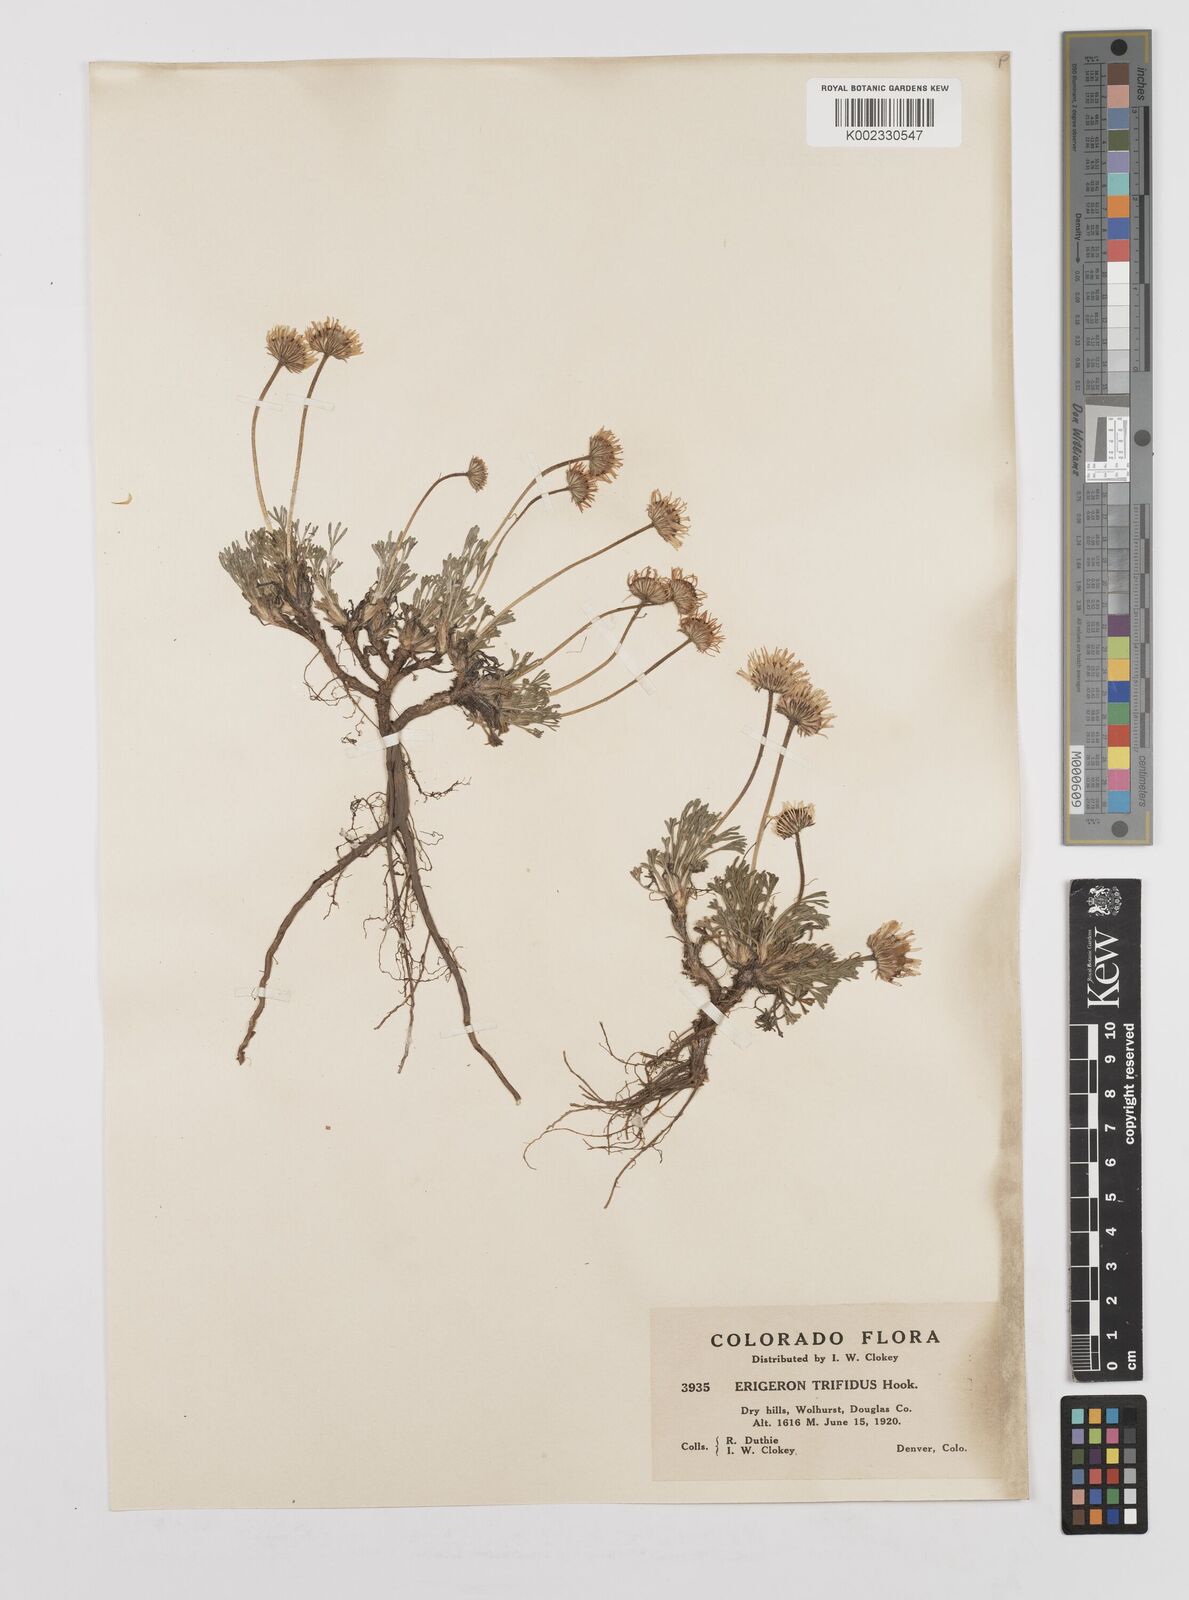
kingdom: Plantae
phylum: Tracheophyta
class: Magnoliopsida
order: Asterales
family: Asteraceae
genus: Erigeron
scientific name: Erigeron compositus
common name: Dwarf mountain fleabane
